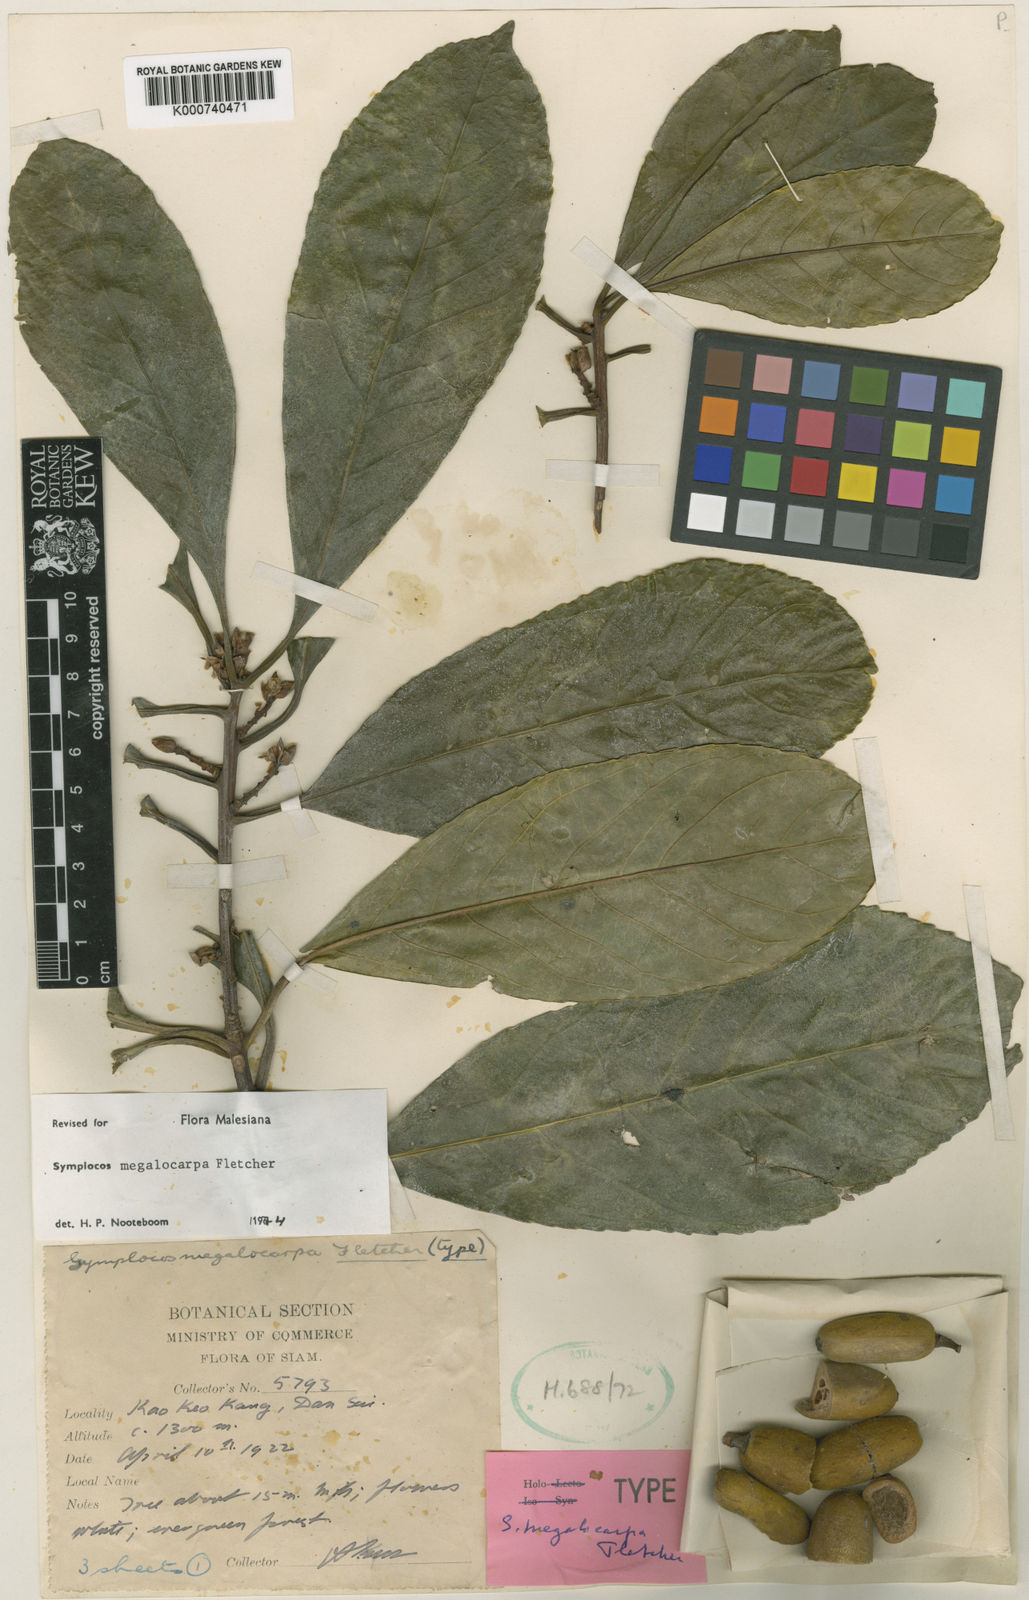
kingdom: Plantae
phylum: Tracheophyta
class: Magnoliopsida
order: Ericales
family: Symplocaceae
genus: Symplocos
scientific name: Symplocos sulcata
